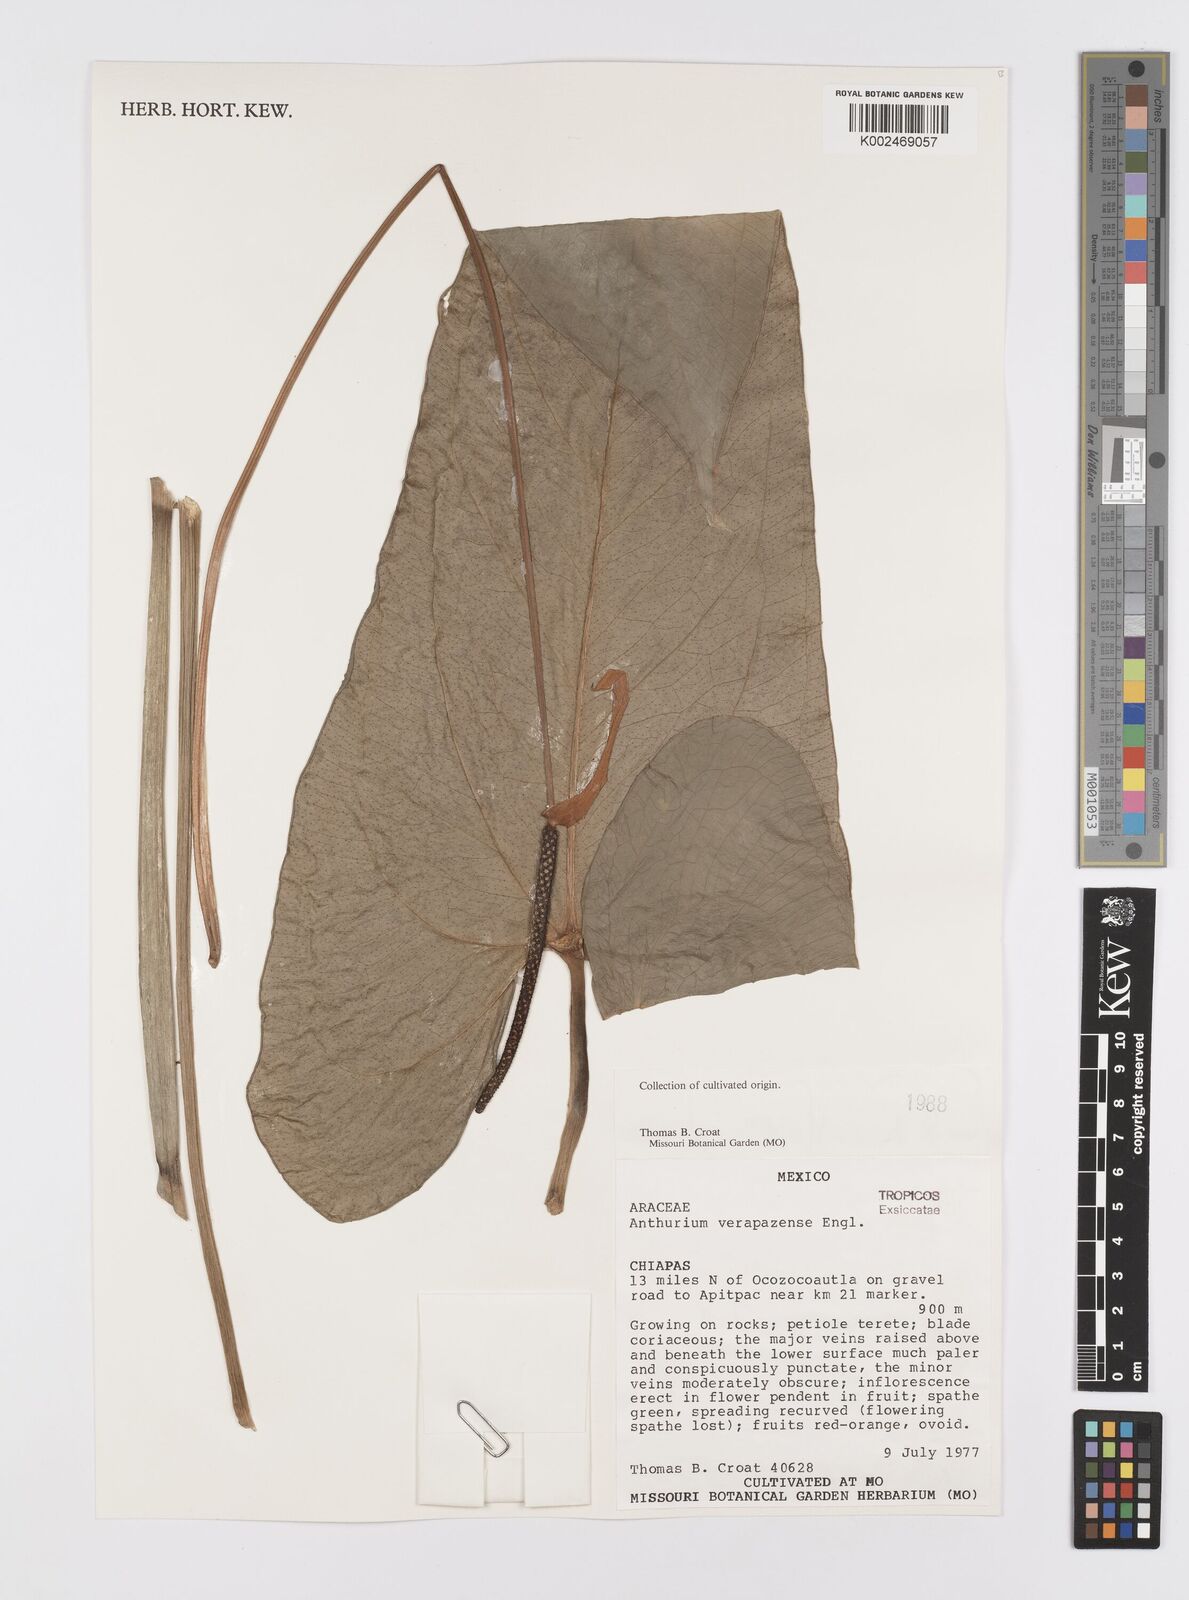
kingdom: Plantae
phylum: Tracheophyta
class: Liliopsida
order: Alismatales
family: Araceae
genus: Anthurium
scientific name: Anthurium verapazense
